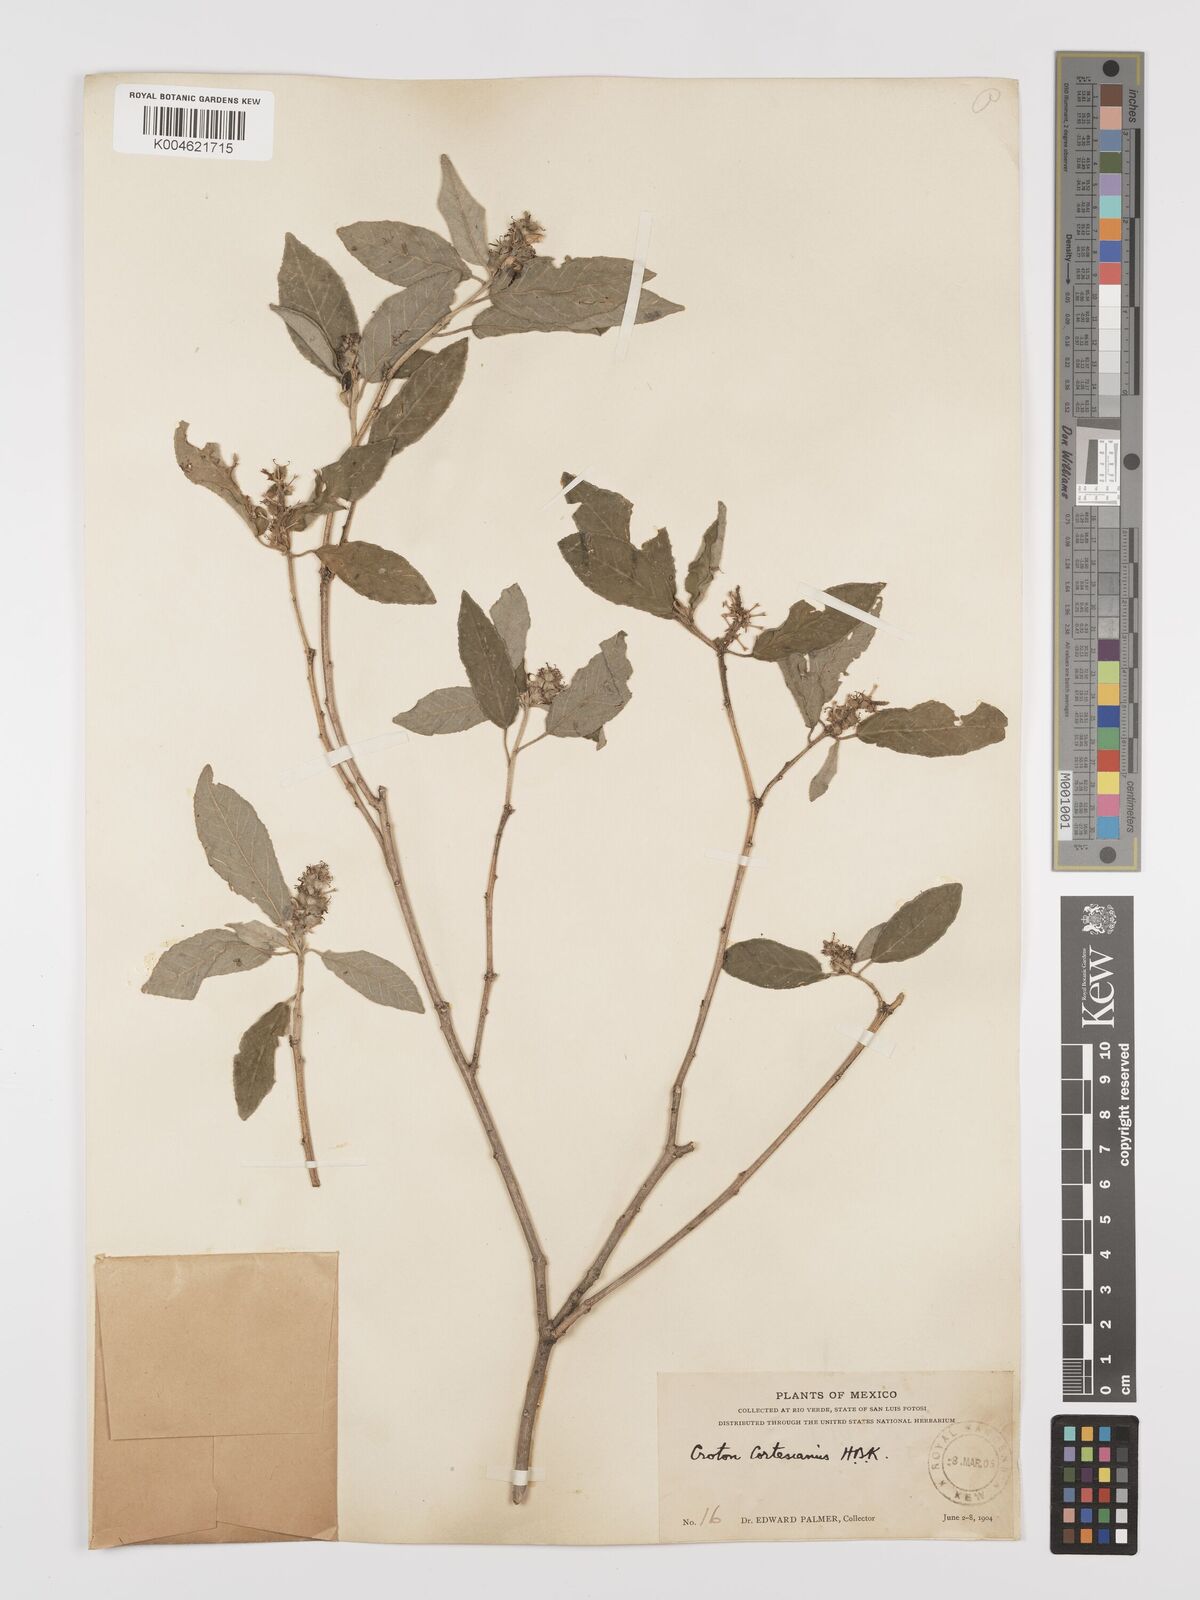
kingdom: Plantae
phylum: Tracheophyta
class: Magnoliopsida
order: Malpighiales
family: Euphorbiaceae
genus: Croton
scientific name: Croton cortesianus
